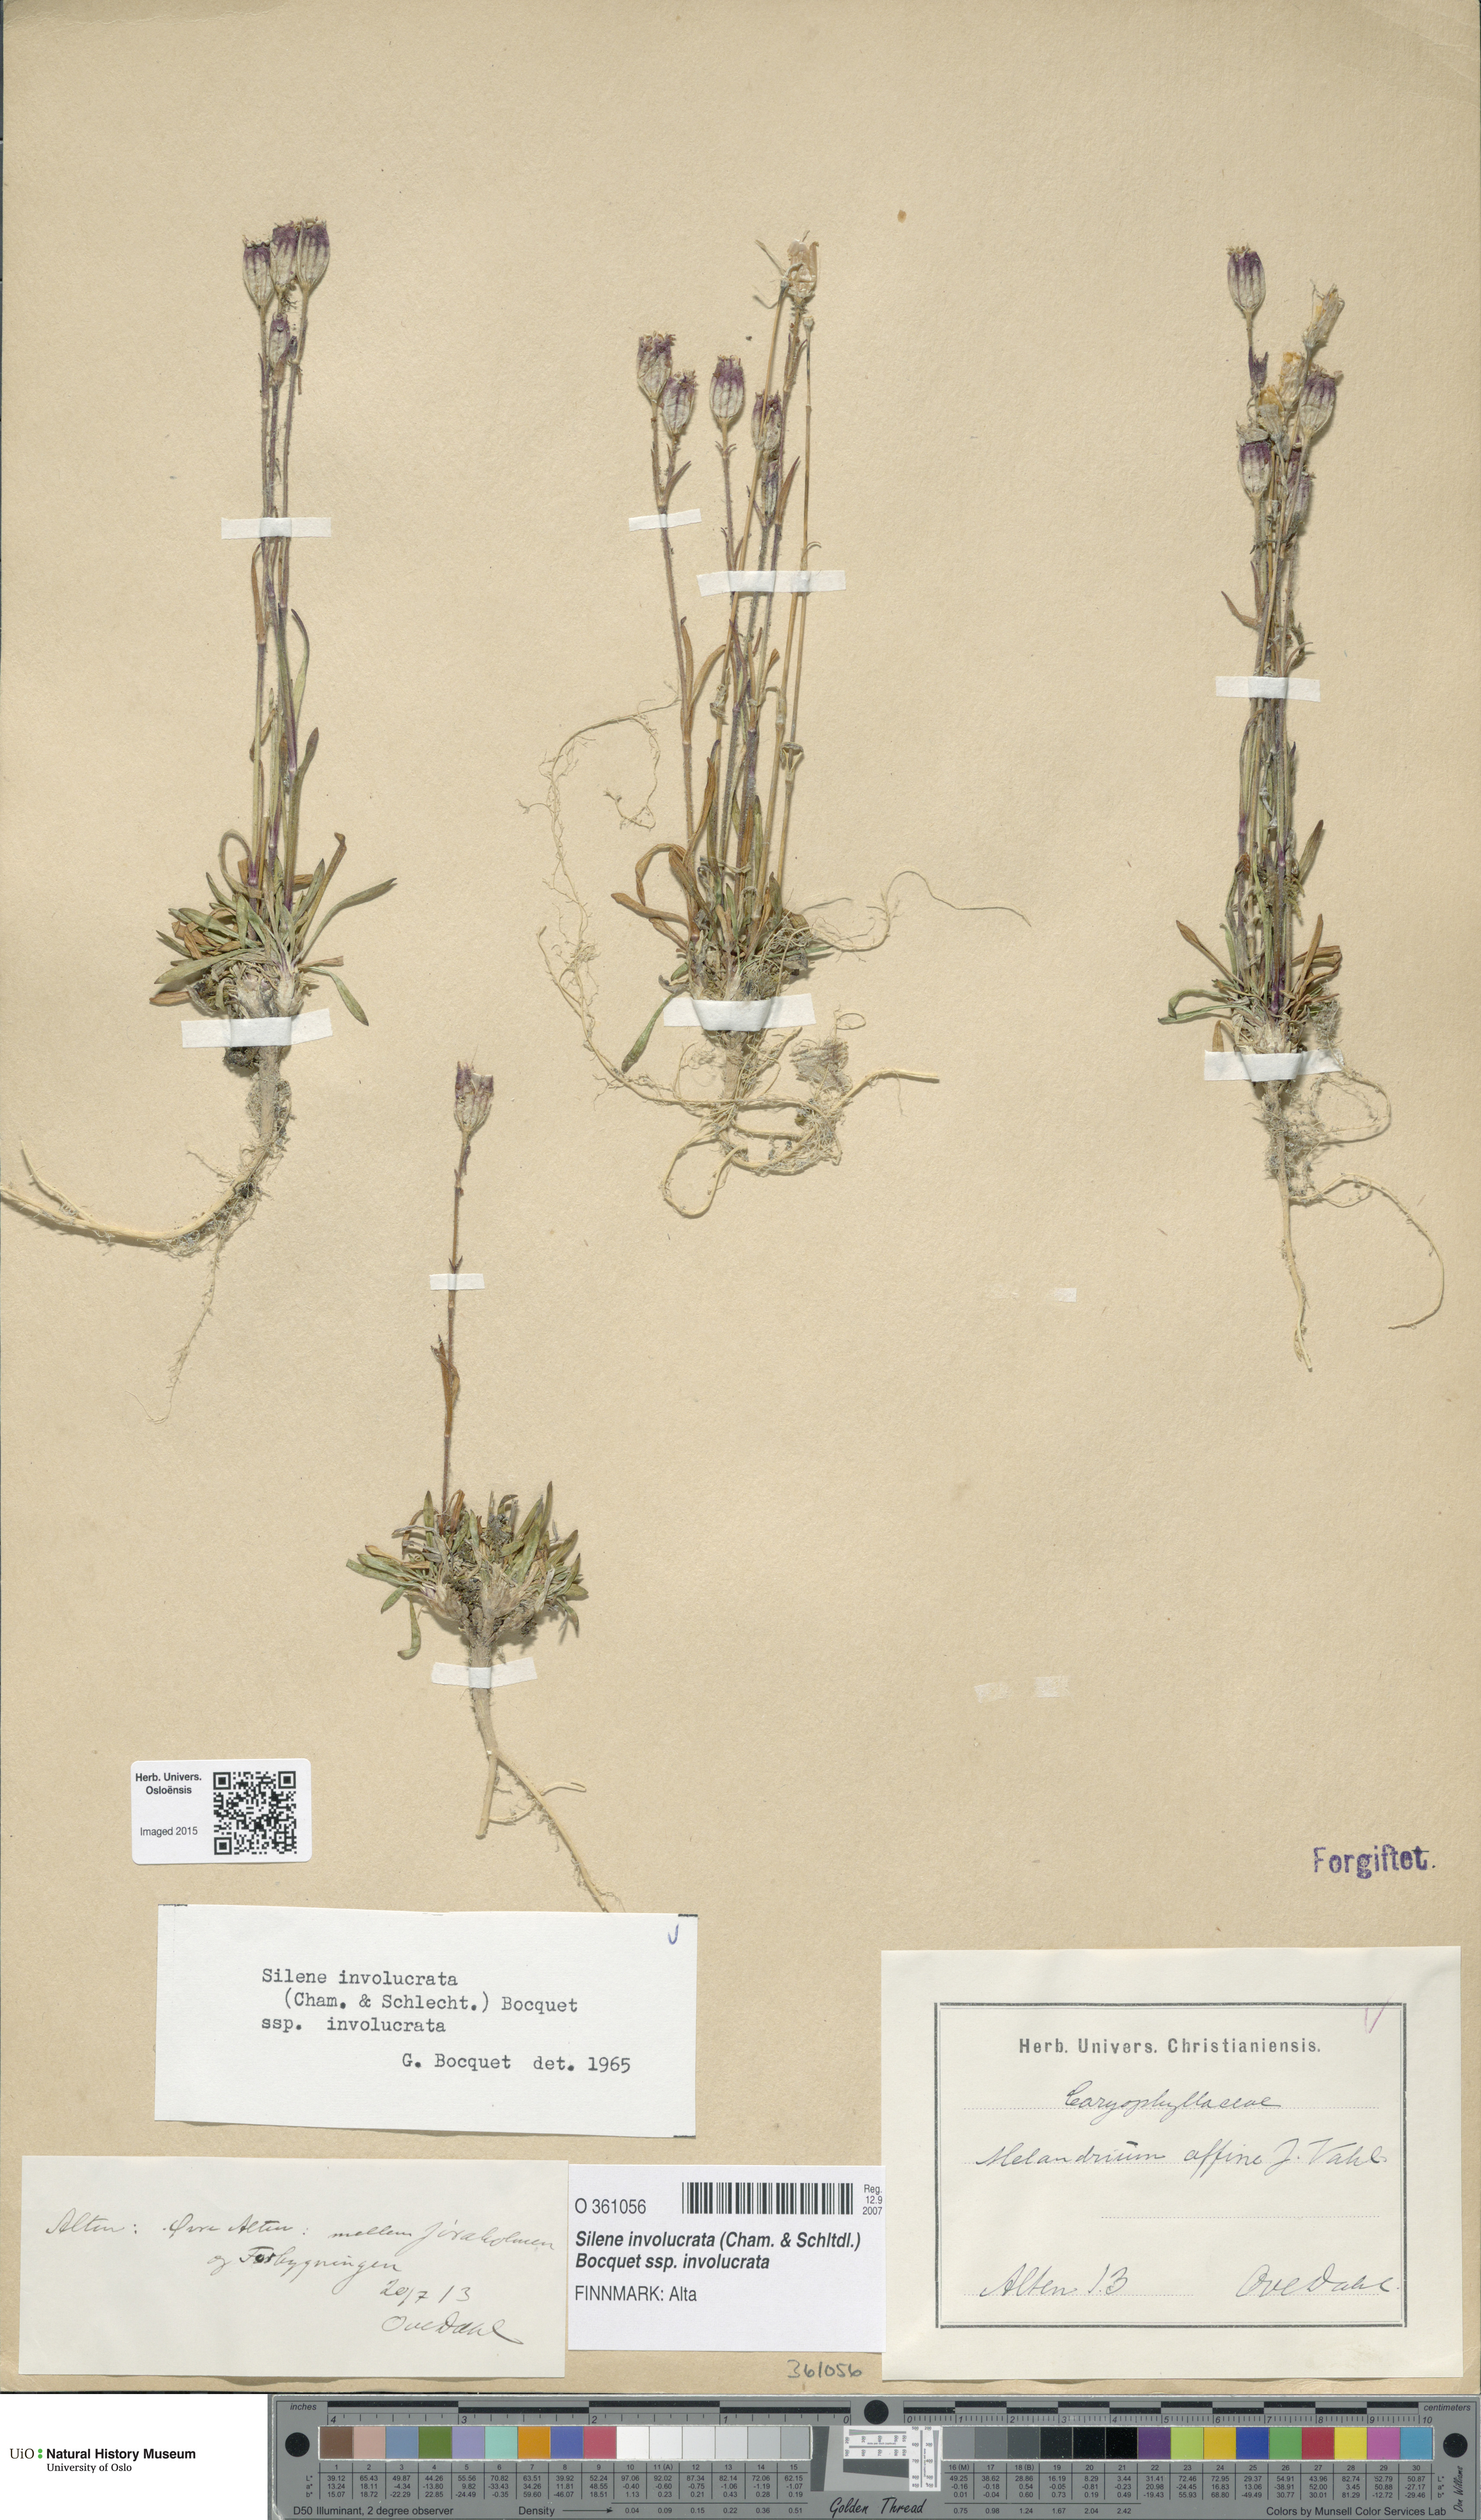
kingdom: Plantae
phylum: Tracheophyta
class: Magnoliopsida
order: Caryophyllales
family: Caryophyllaceae
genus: Silene
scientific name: Silene involucrata
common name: Greater arctic campion
